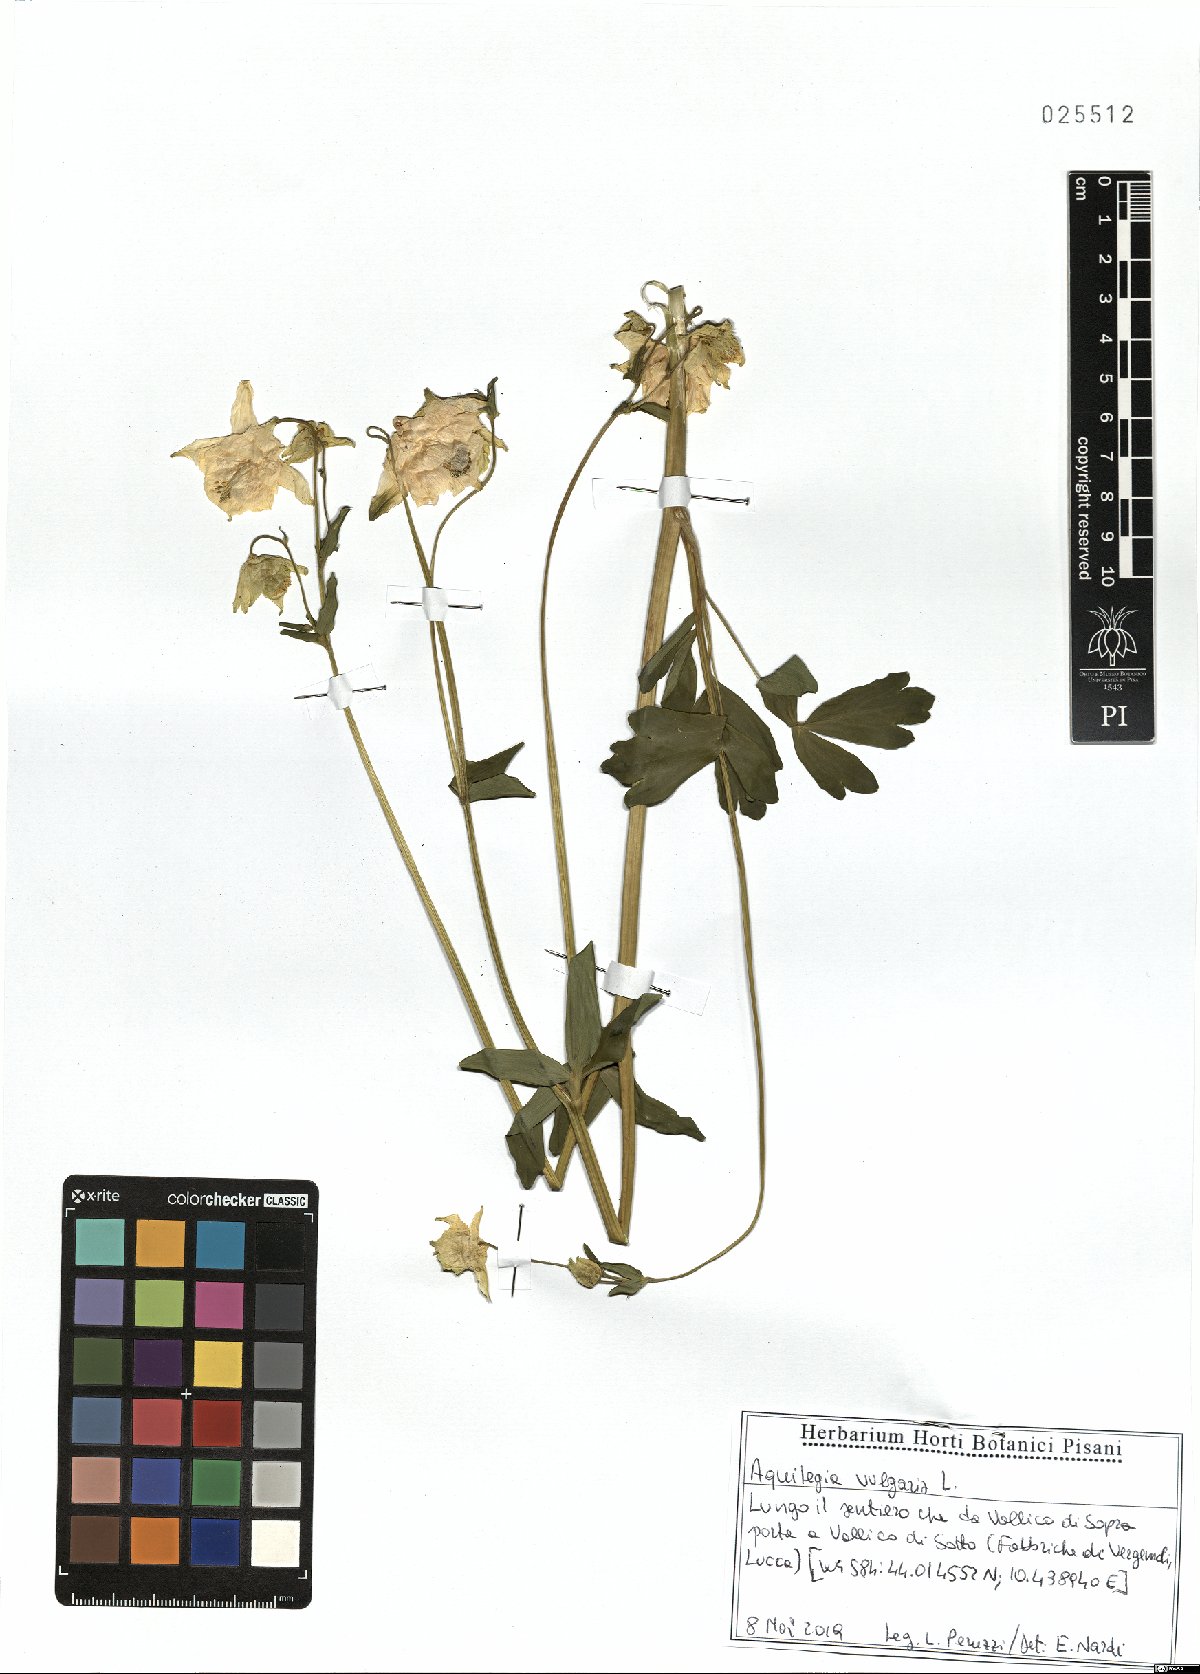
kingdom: Plantae
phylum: Tracheophyta
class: Magnoliopsida
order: Ranunculales
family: Ranunculaceae
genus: Aquilegia
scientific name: Aquilegia vulgaris
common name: Columbine
